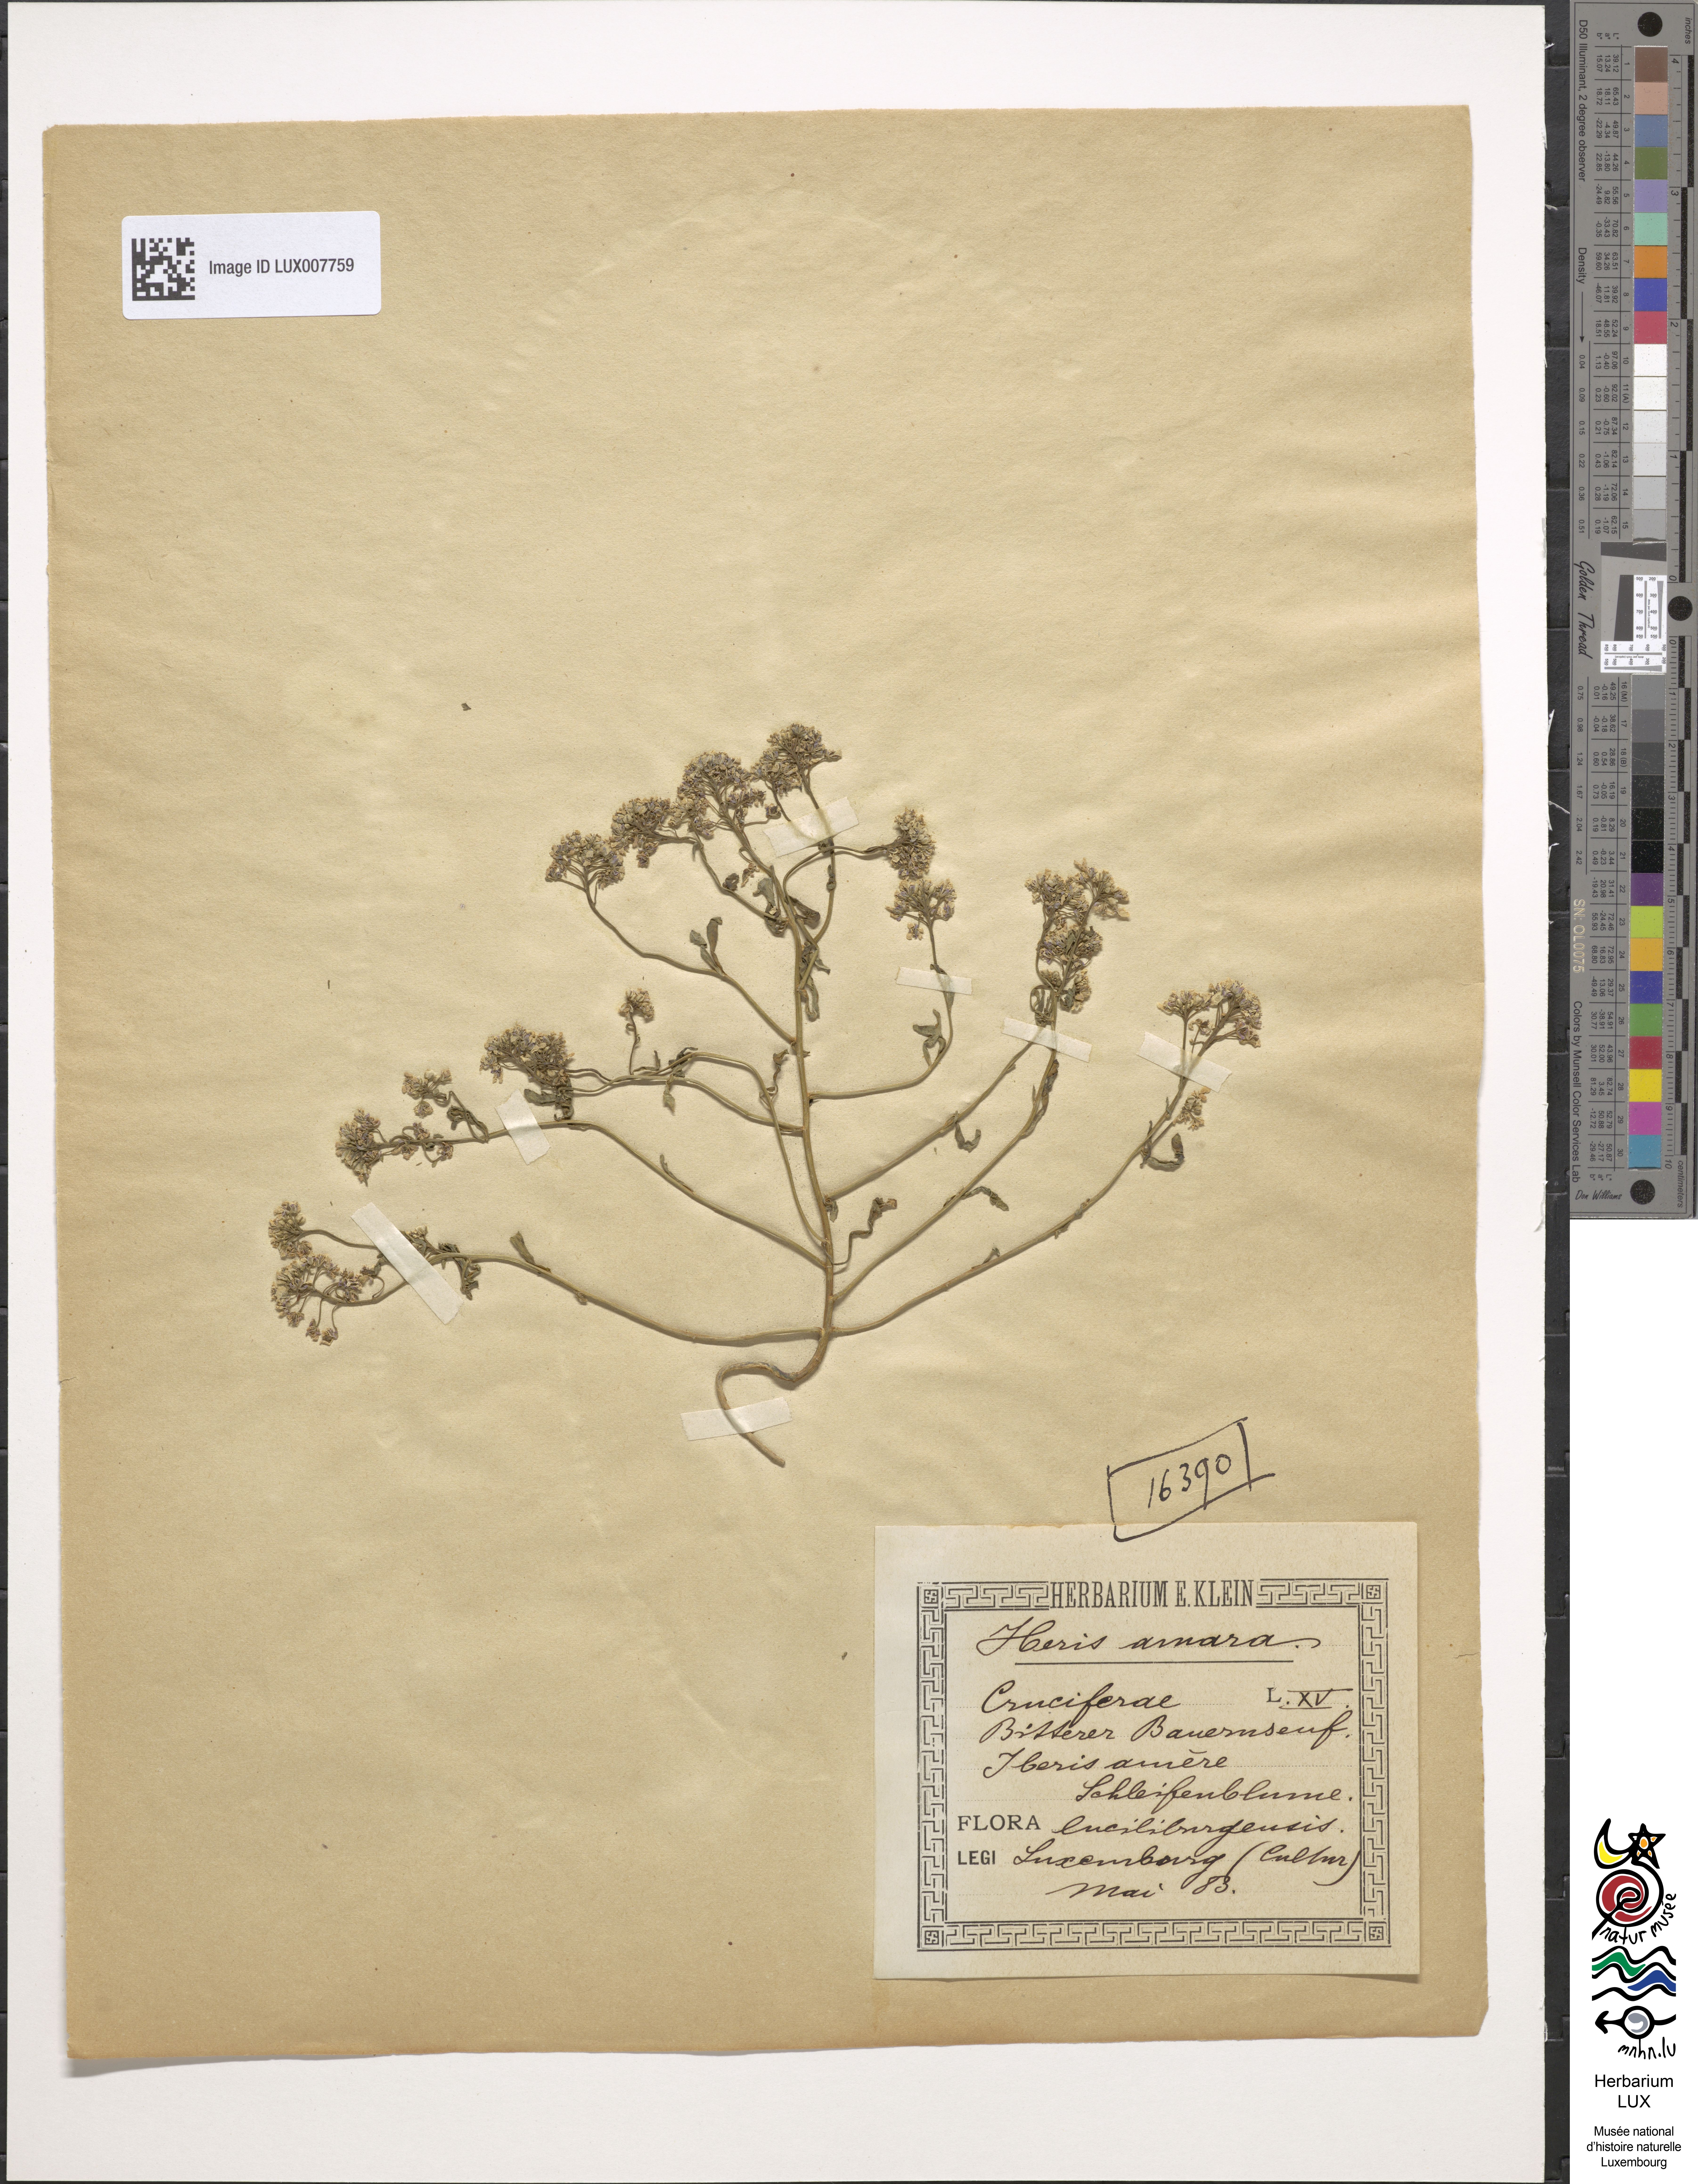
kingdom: Plantae
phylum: Tracheophyta
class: Magnoliopsida
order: Brassicales
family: Brassicaceae
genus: Iberis
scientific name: Iberis amara
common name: Annual candytuft
